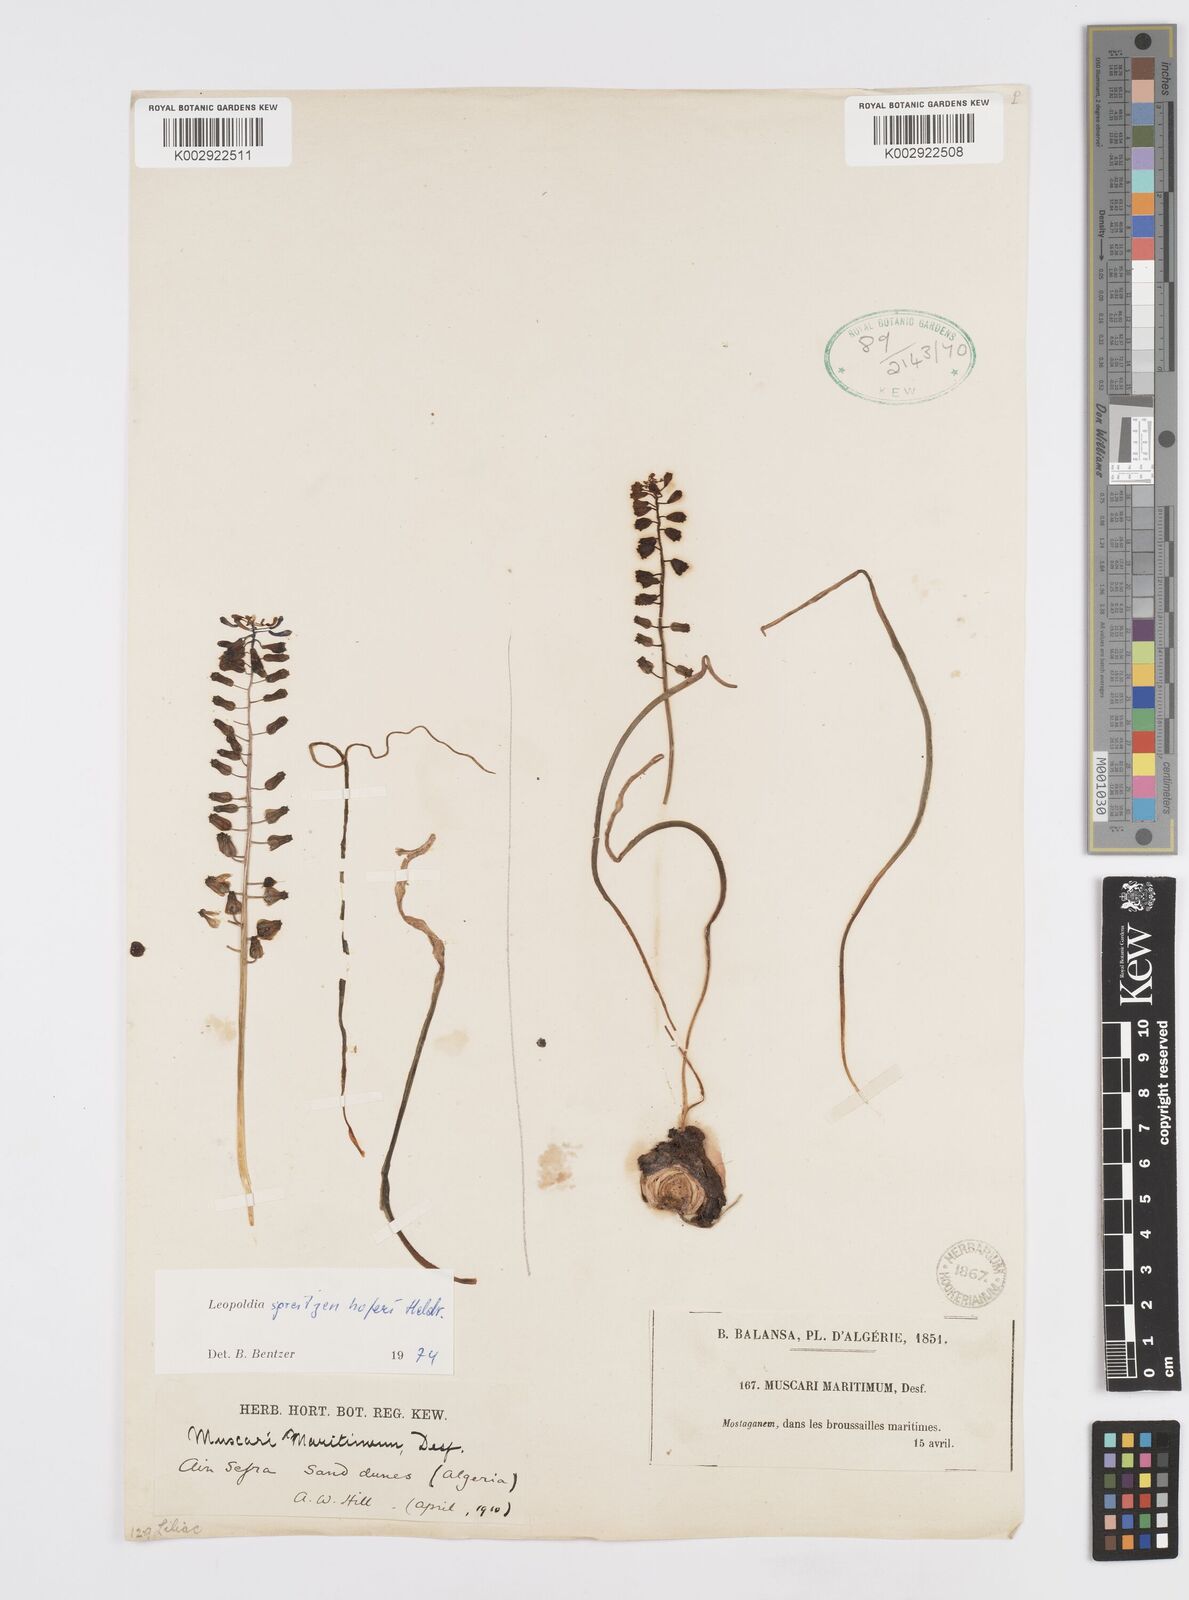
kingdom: Plantae
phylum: Tracheophyta
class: Liliopsida
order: Asparagales
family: Asparagaceae
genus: Muscari
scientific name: Muscari spreitzenhoferi
